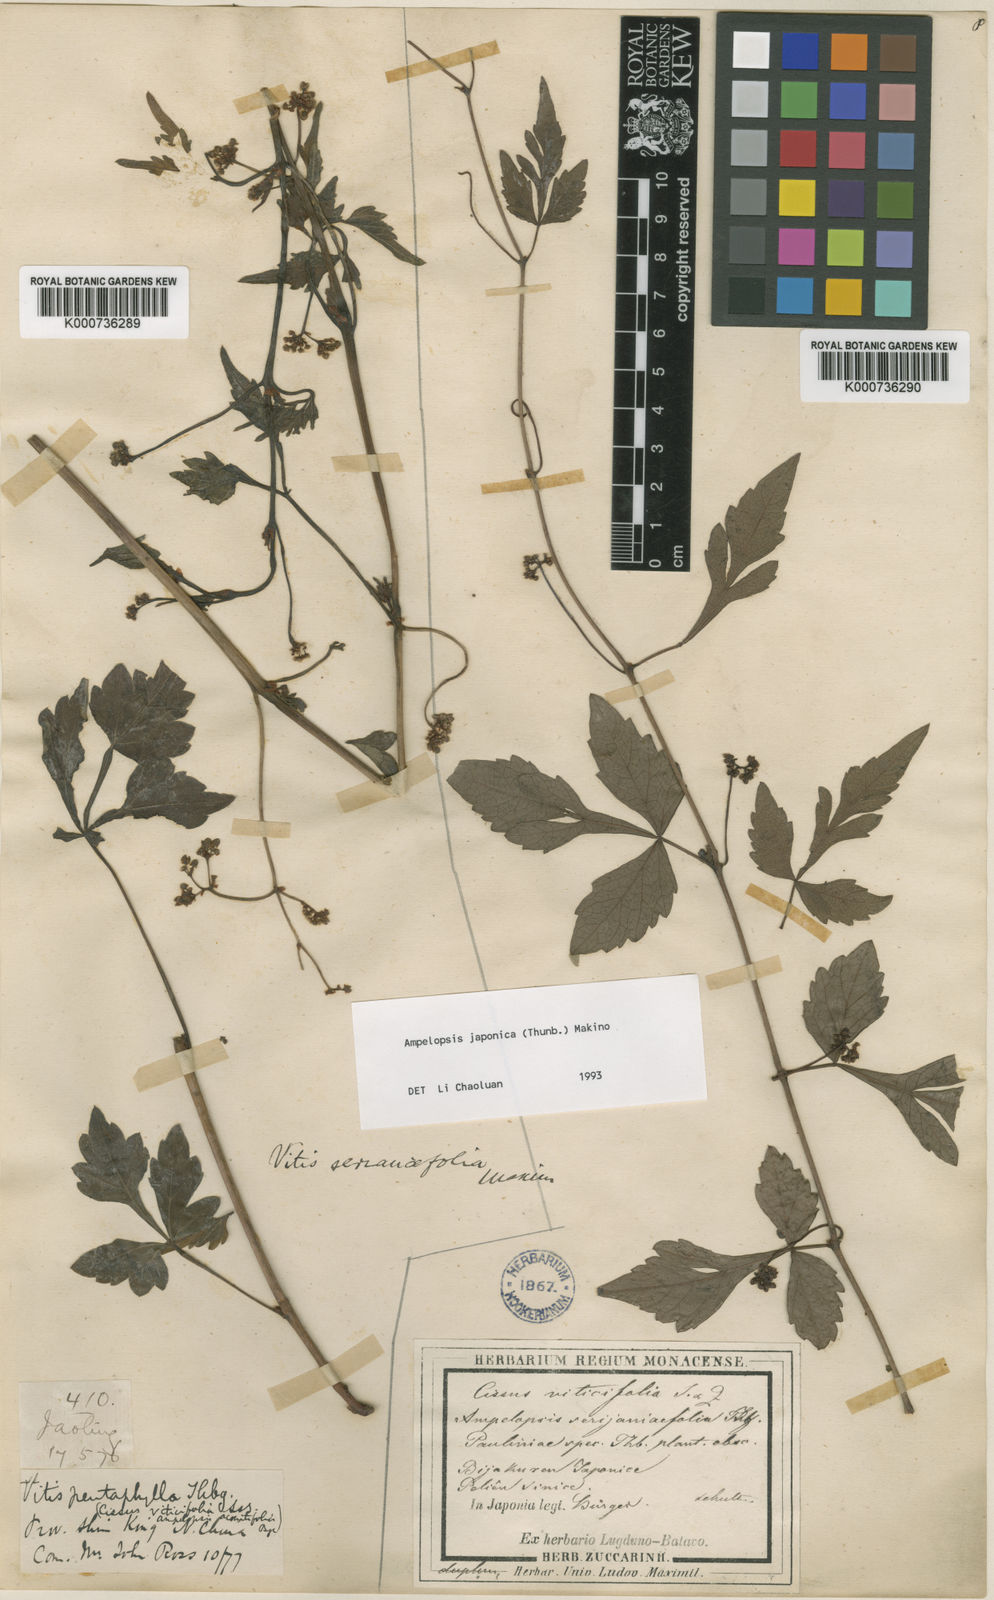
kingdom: Plantae
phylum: Tracheophyta
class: Magnoliopsida
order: Vitales
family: Vitaceae
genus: Ampelopsis
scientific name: Ampelopsis japonica
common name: Japanese peppervine
